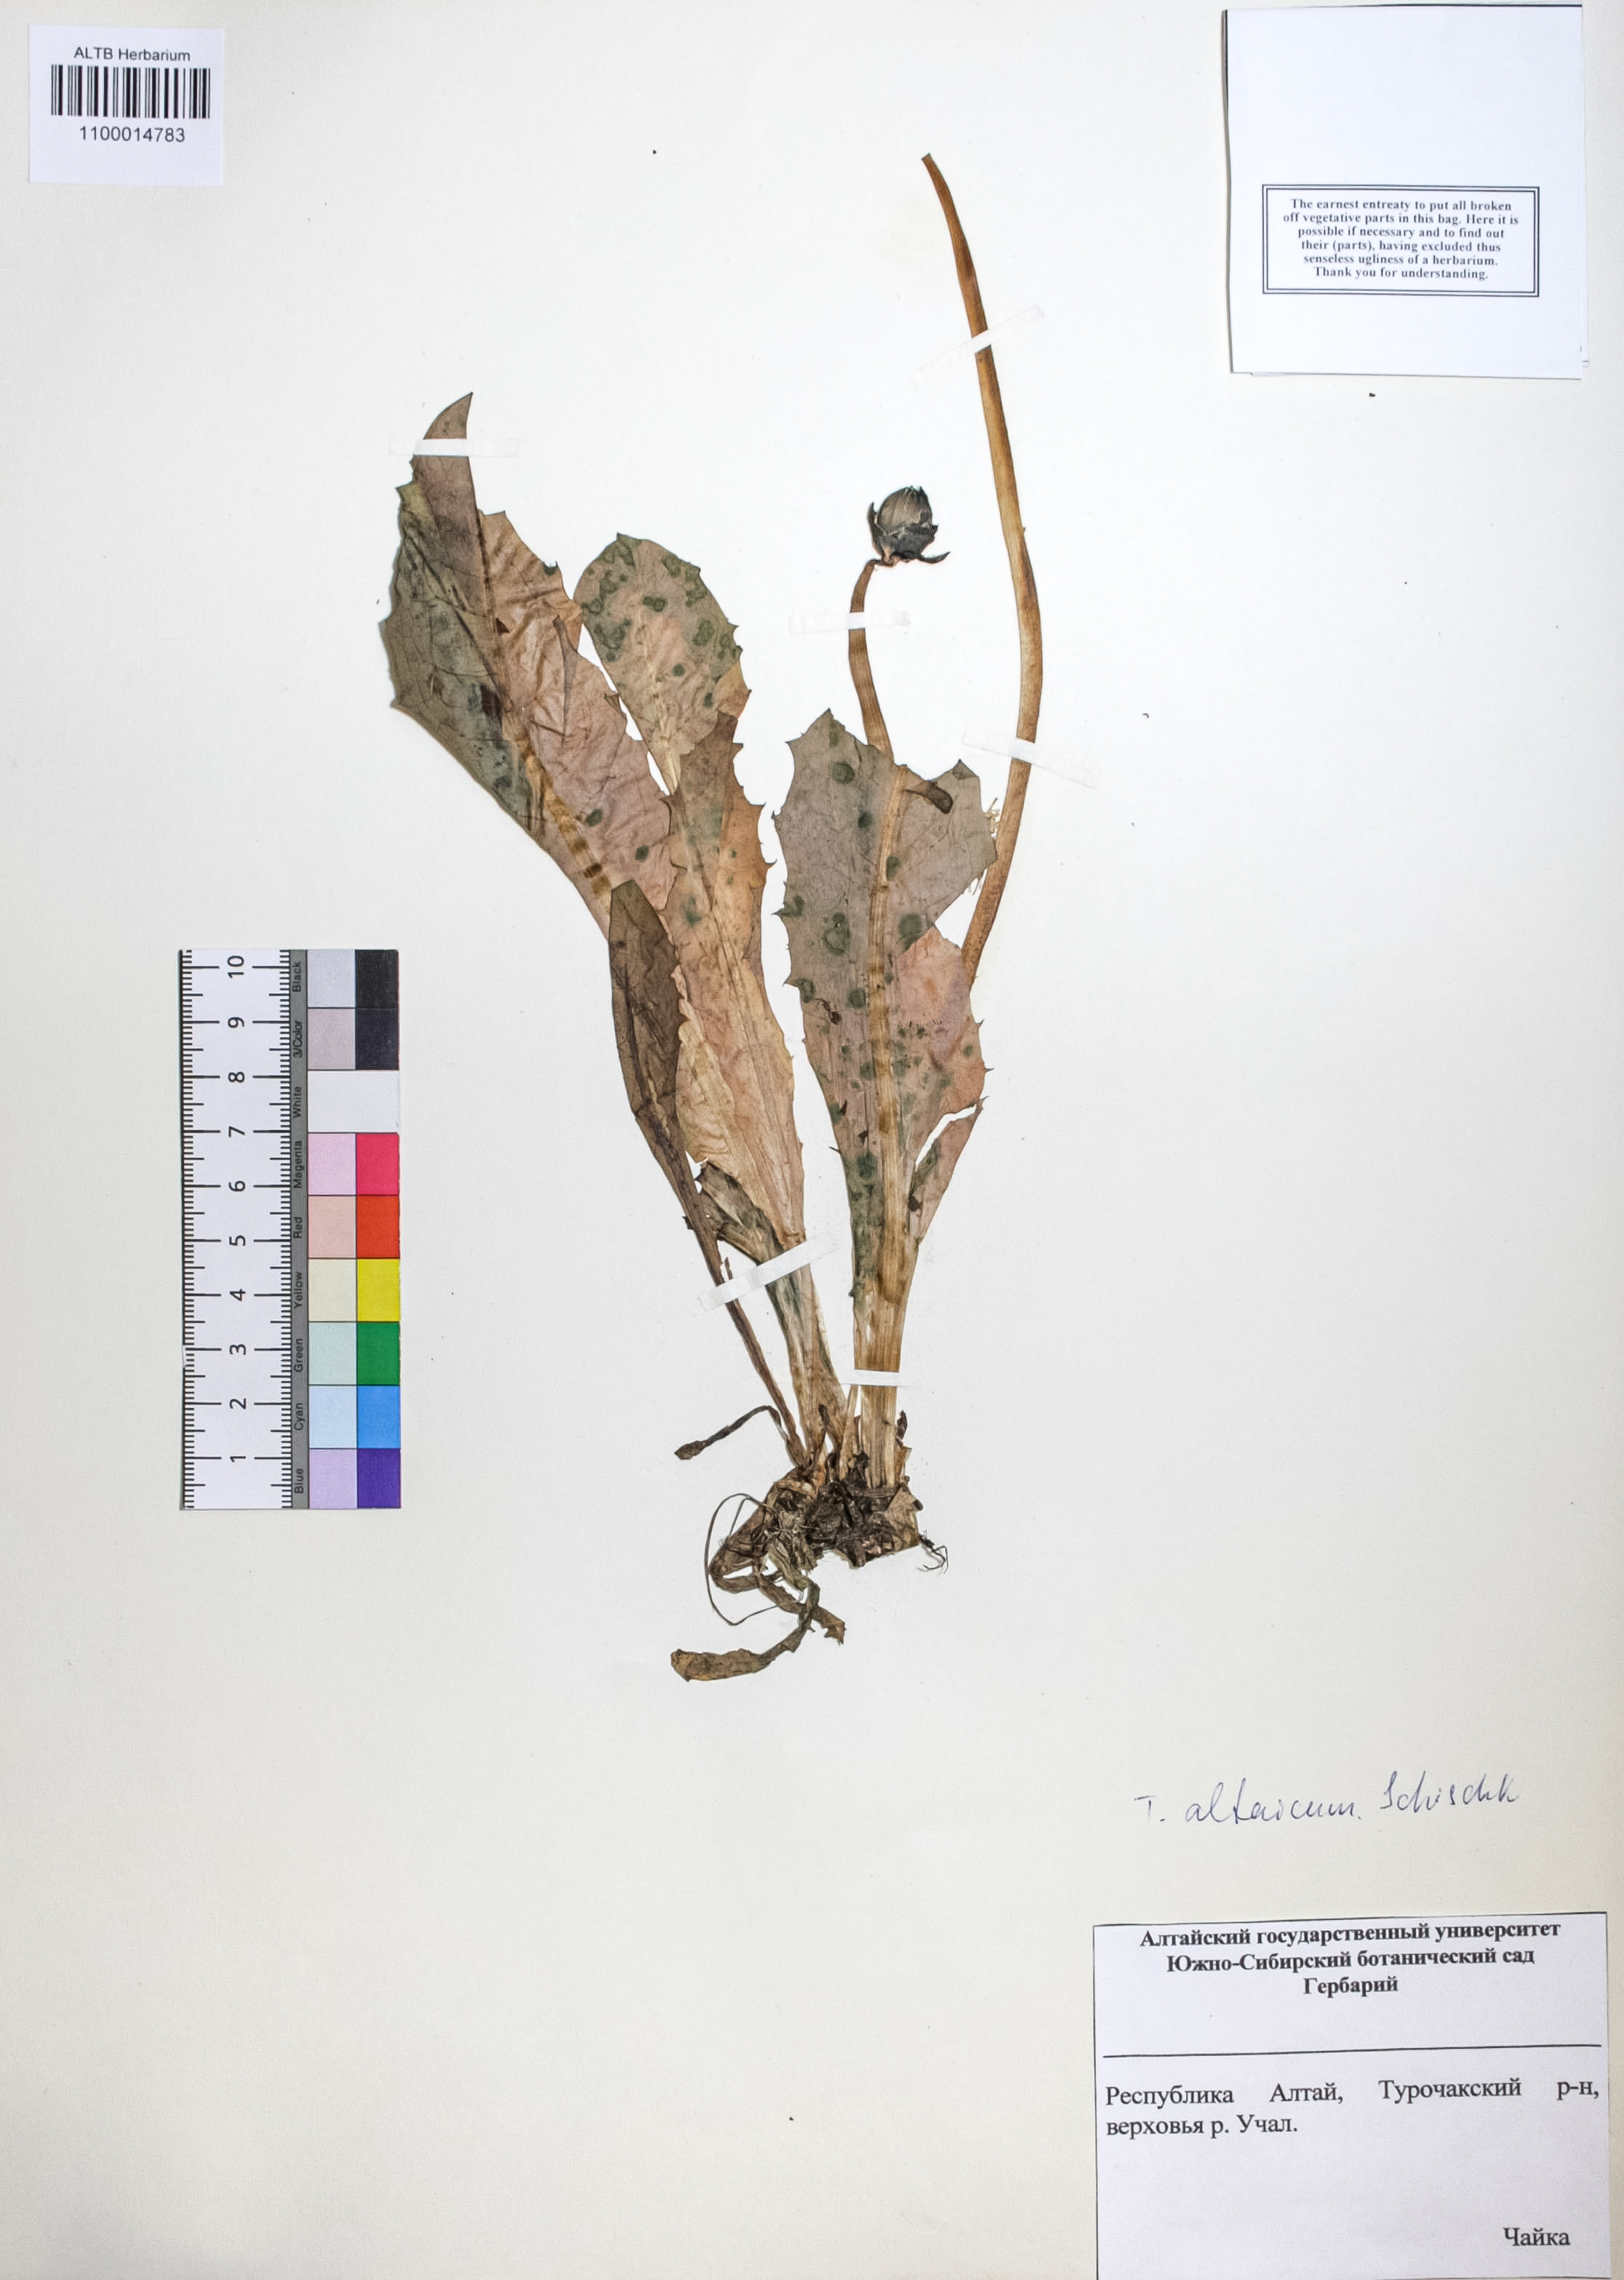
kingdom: Plantae
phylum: Tracheophyta
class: Magnoliopsida
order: Asterales
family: Asteraceae
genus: Taraxacum
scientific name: Taraxacum ceratophorum
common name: Horn-bearing dandelion
